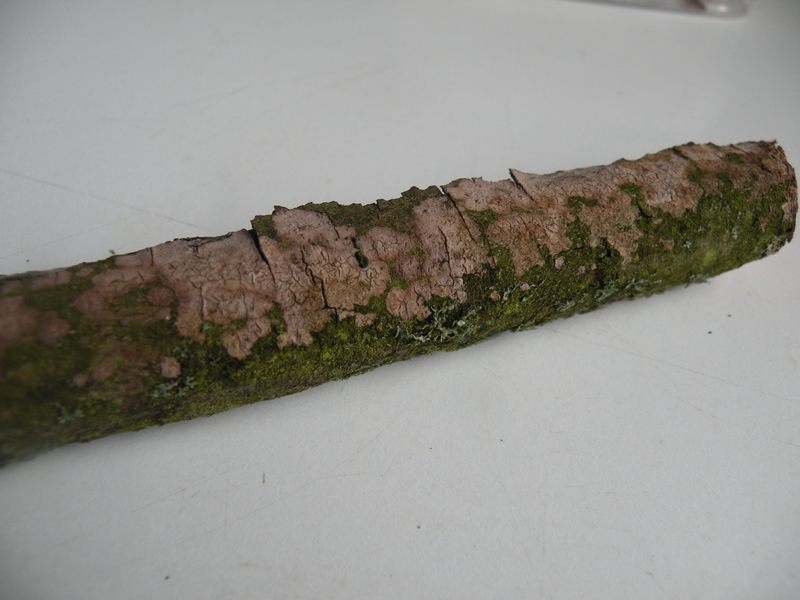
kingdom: Fungi
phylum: Basidiomycota
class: Agaricomycetes
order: Russulales
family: Peniophoraceae
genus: Peniophora
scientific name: Peniophora nuda
